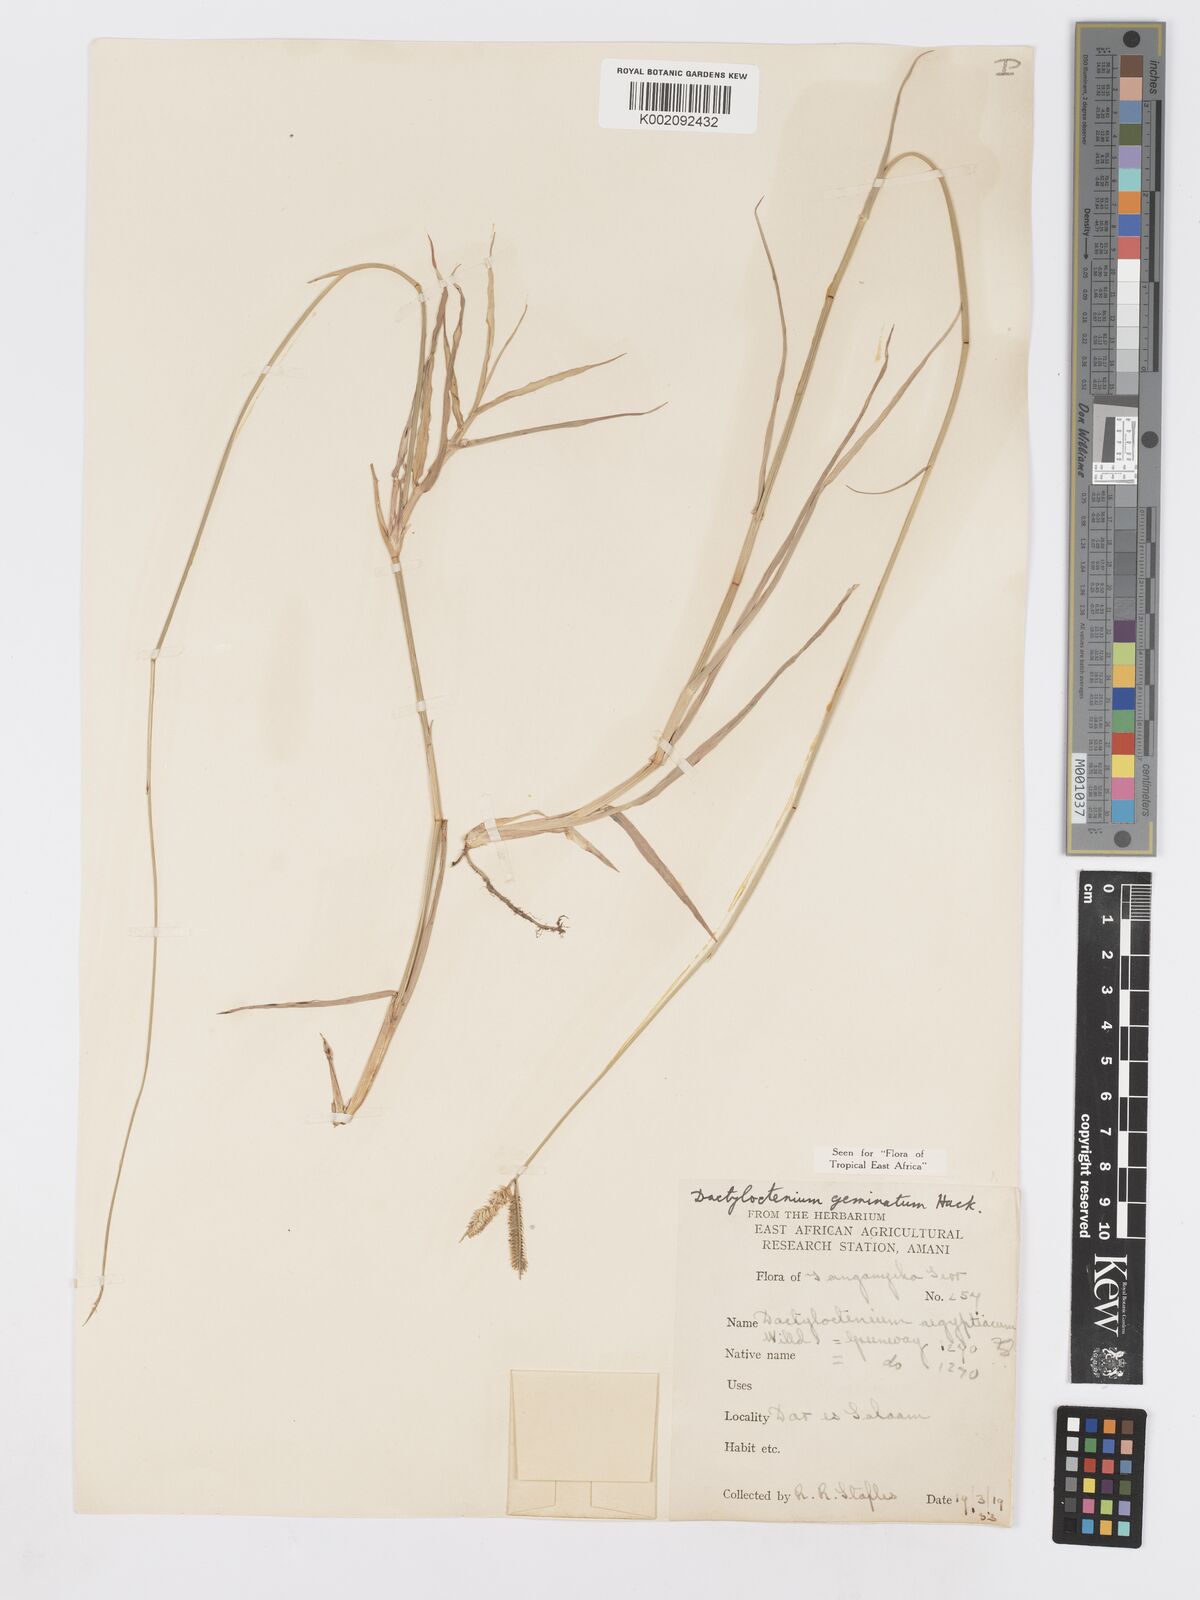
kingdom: Plantae
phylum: Tracheophyta
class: Liliopsida
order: Poales
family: Poaceae
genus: Dactyloctenium
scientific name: Dactyloctenium geminatum
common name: Crowsfoot grass
